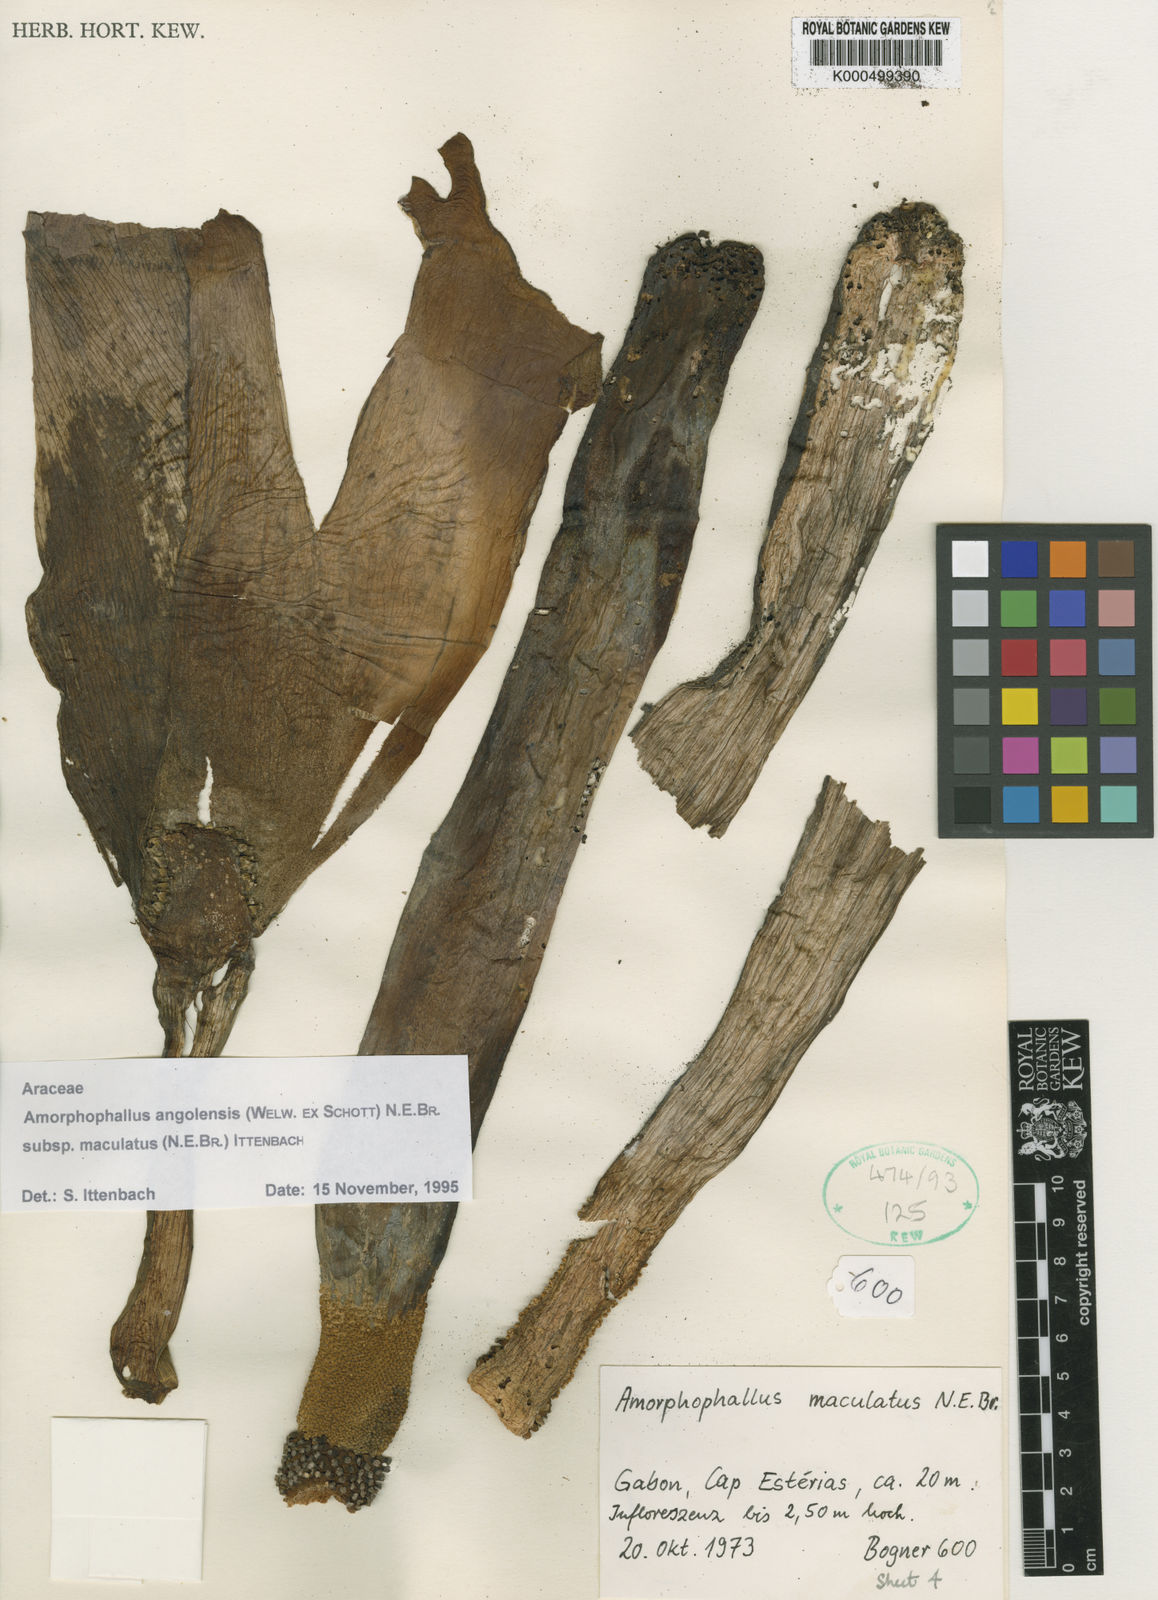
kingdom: Plantae
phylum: Tracheophyta
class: Liliopsida
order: Alismatales
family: Araceae
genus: Amorphophallus
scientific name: Amorphophallus
